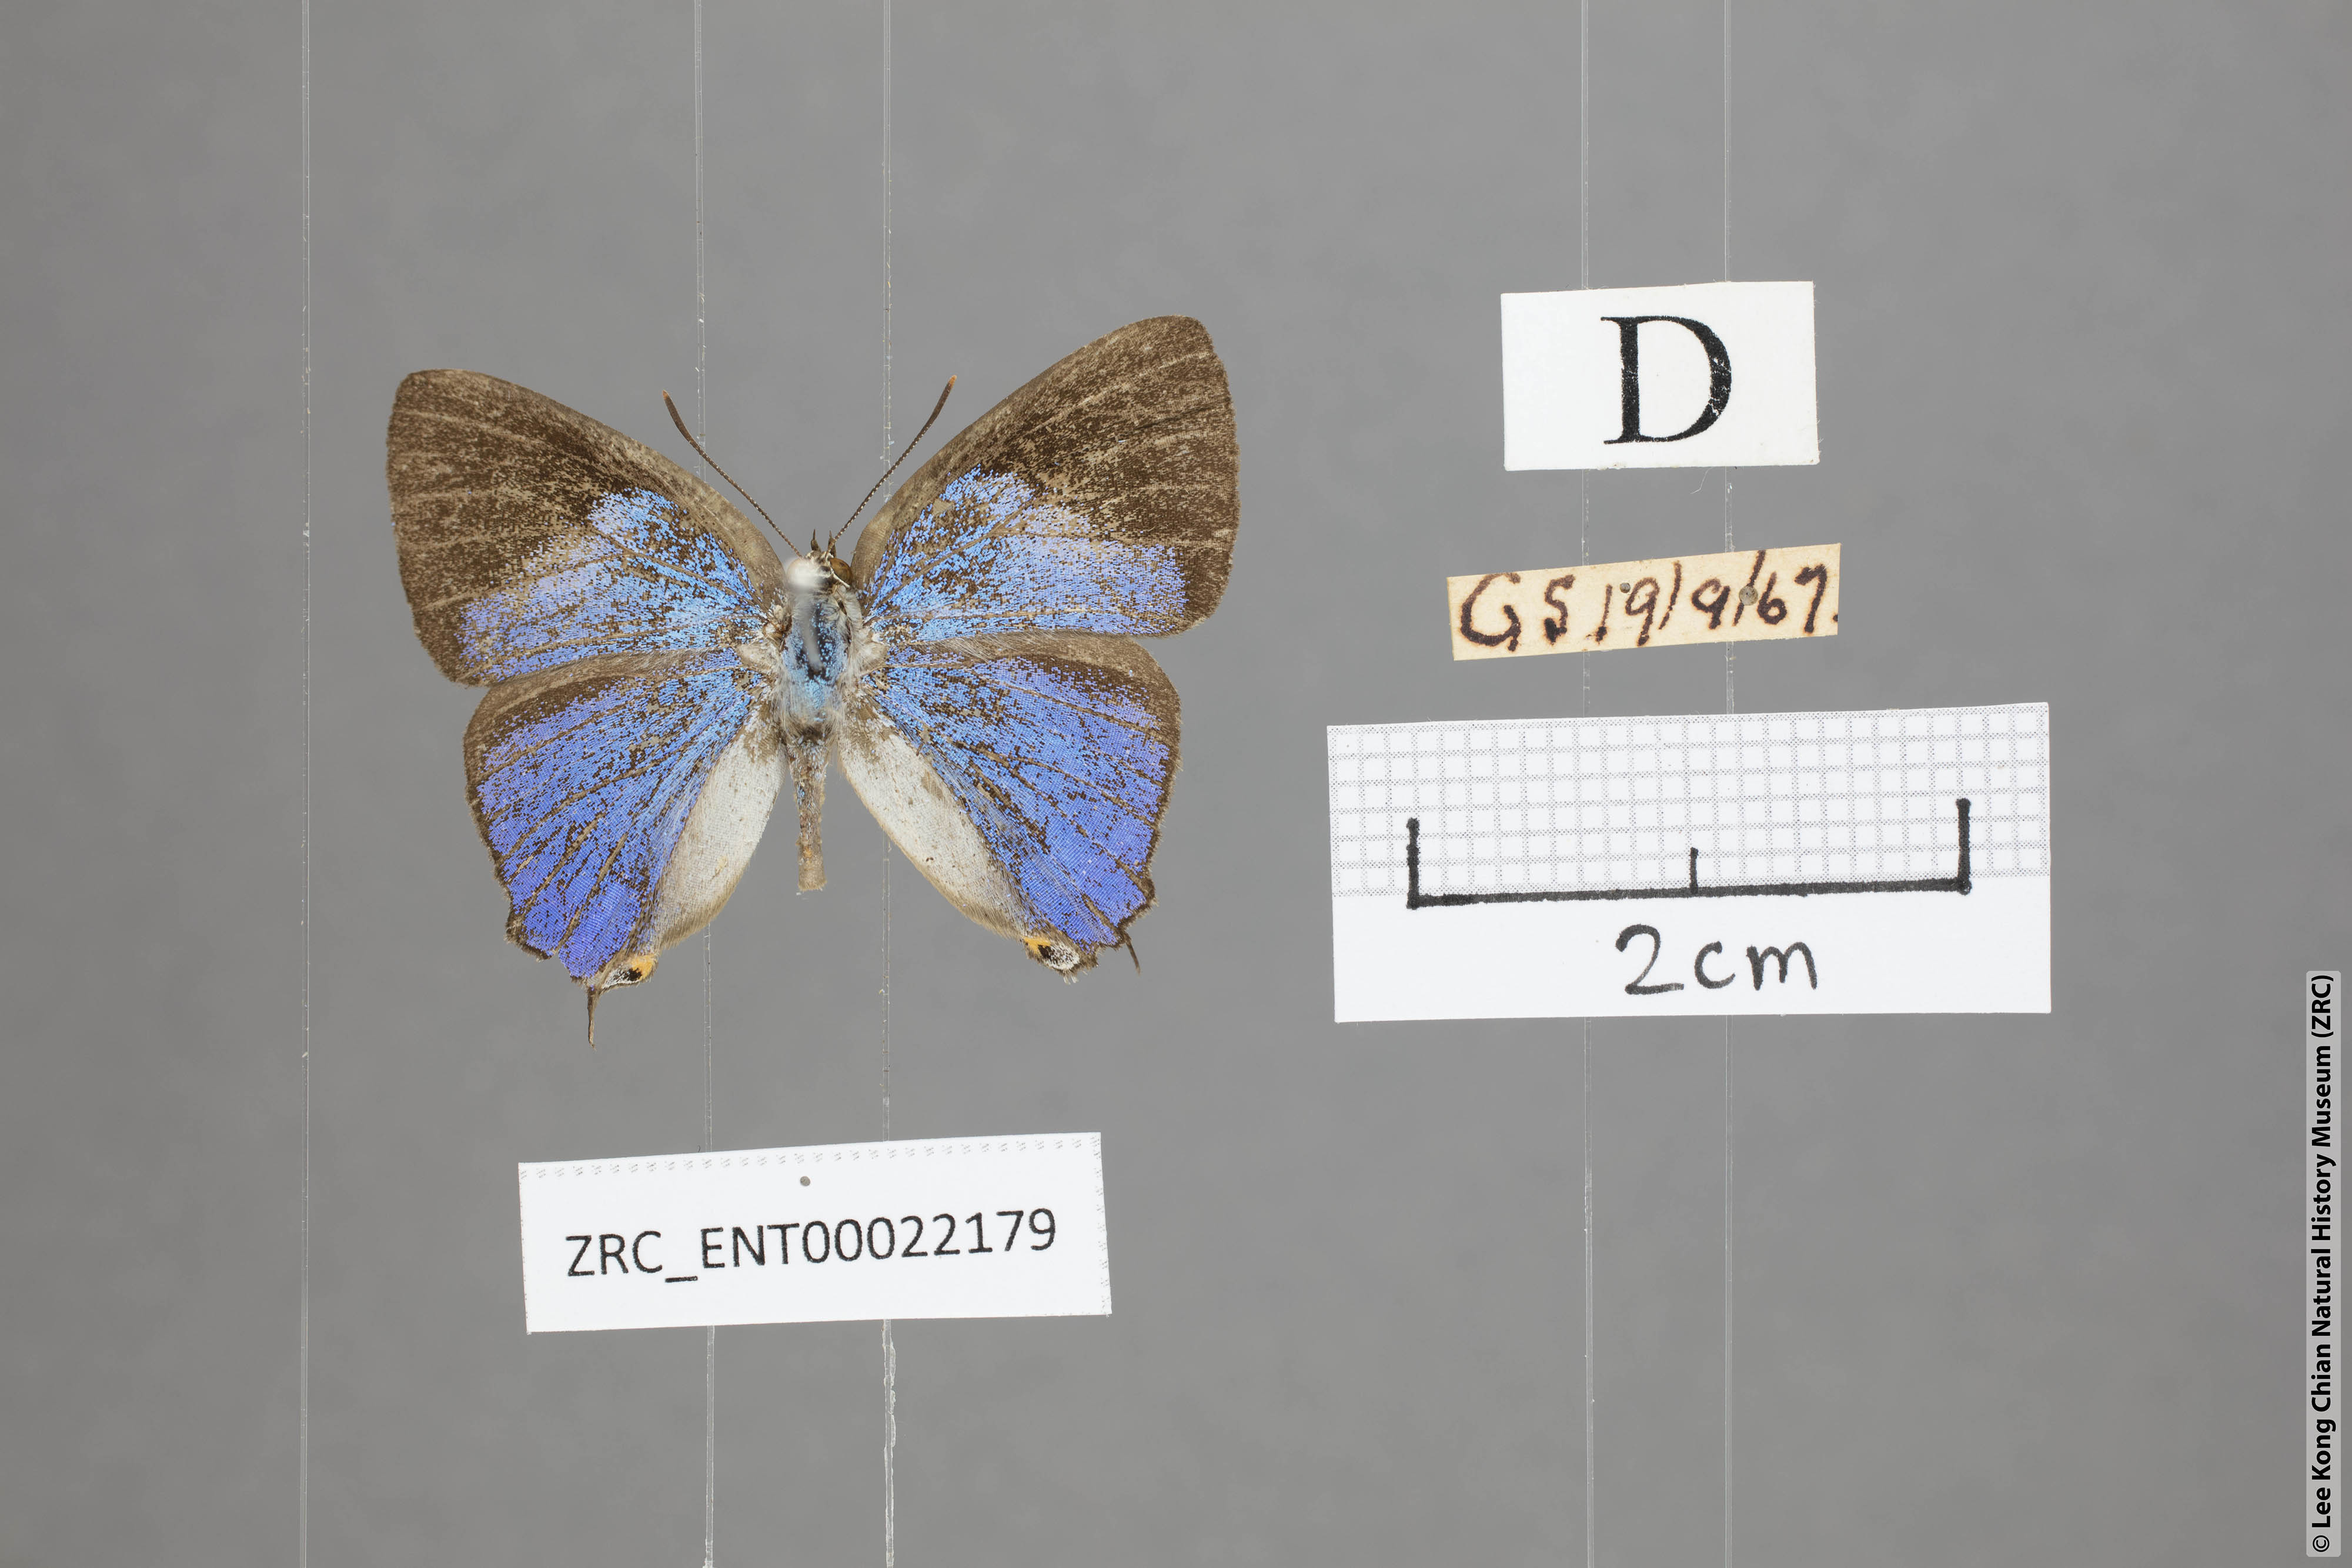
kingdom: Animalia
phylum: Arthropoda
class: Insecta
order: Lepidoptera
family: Lycaenidae
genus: Tajuria
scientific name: Tajuria deudaix
